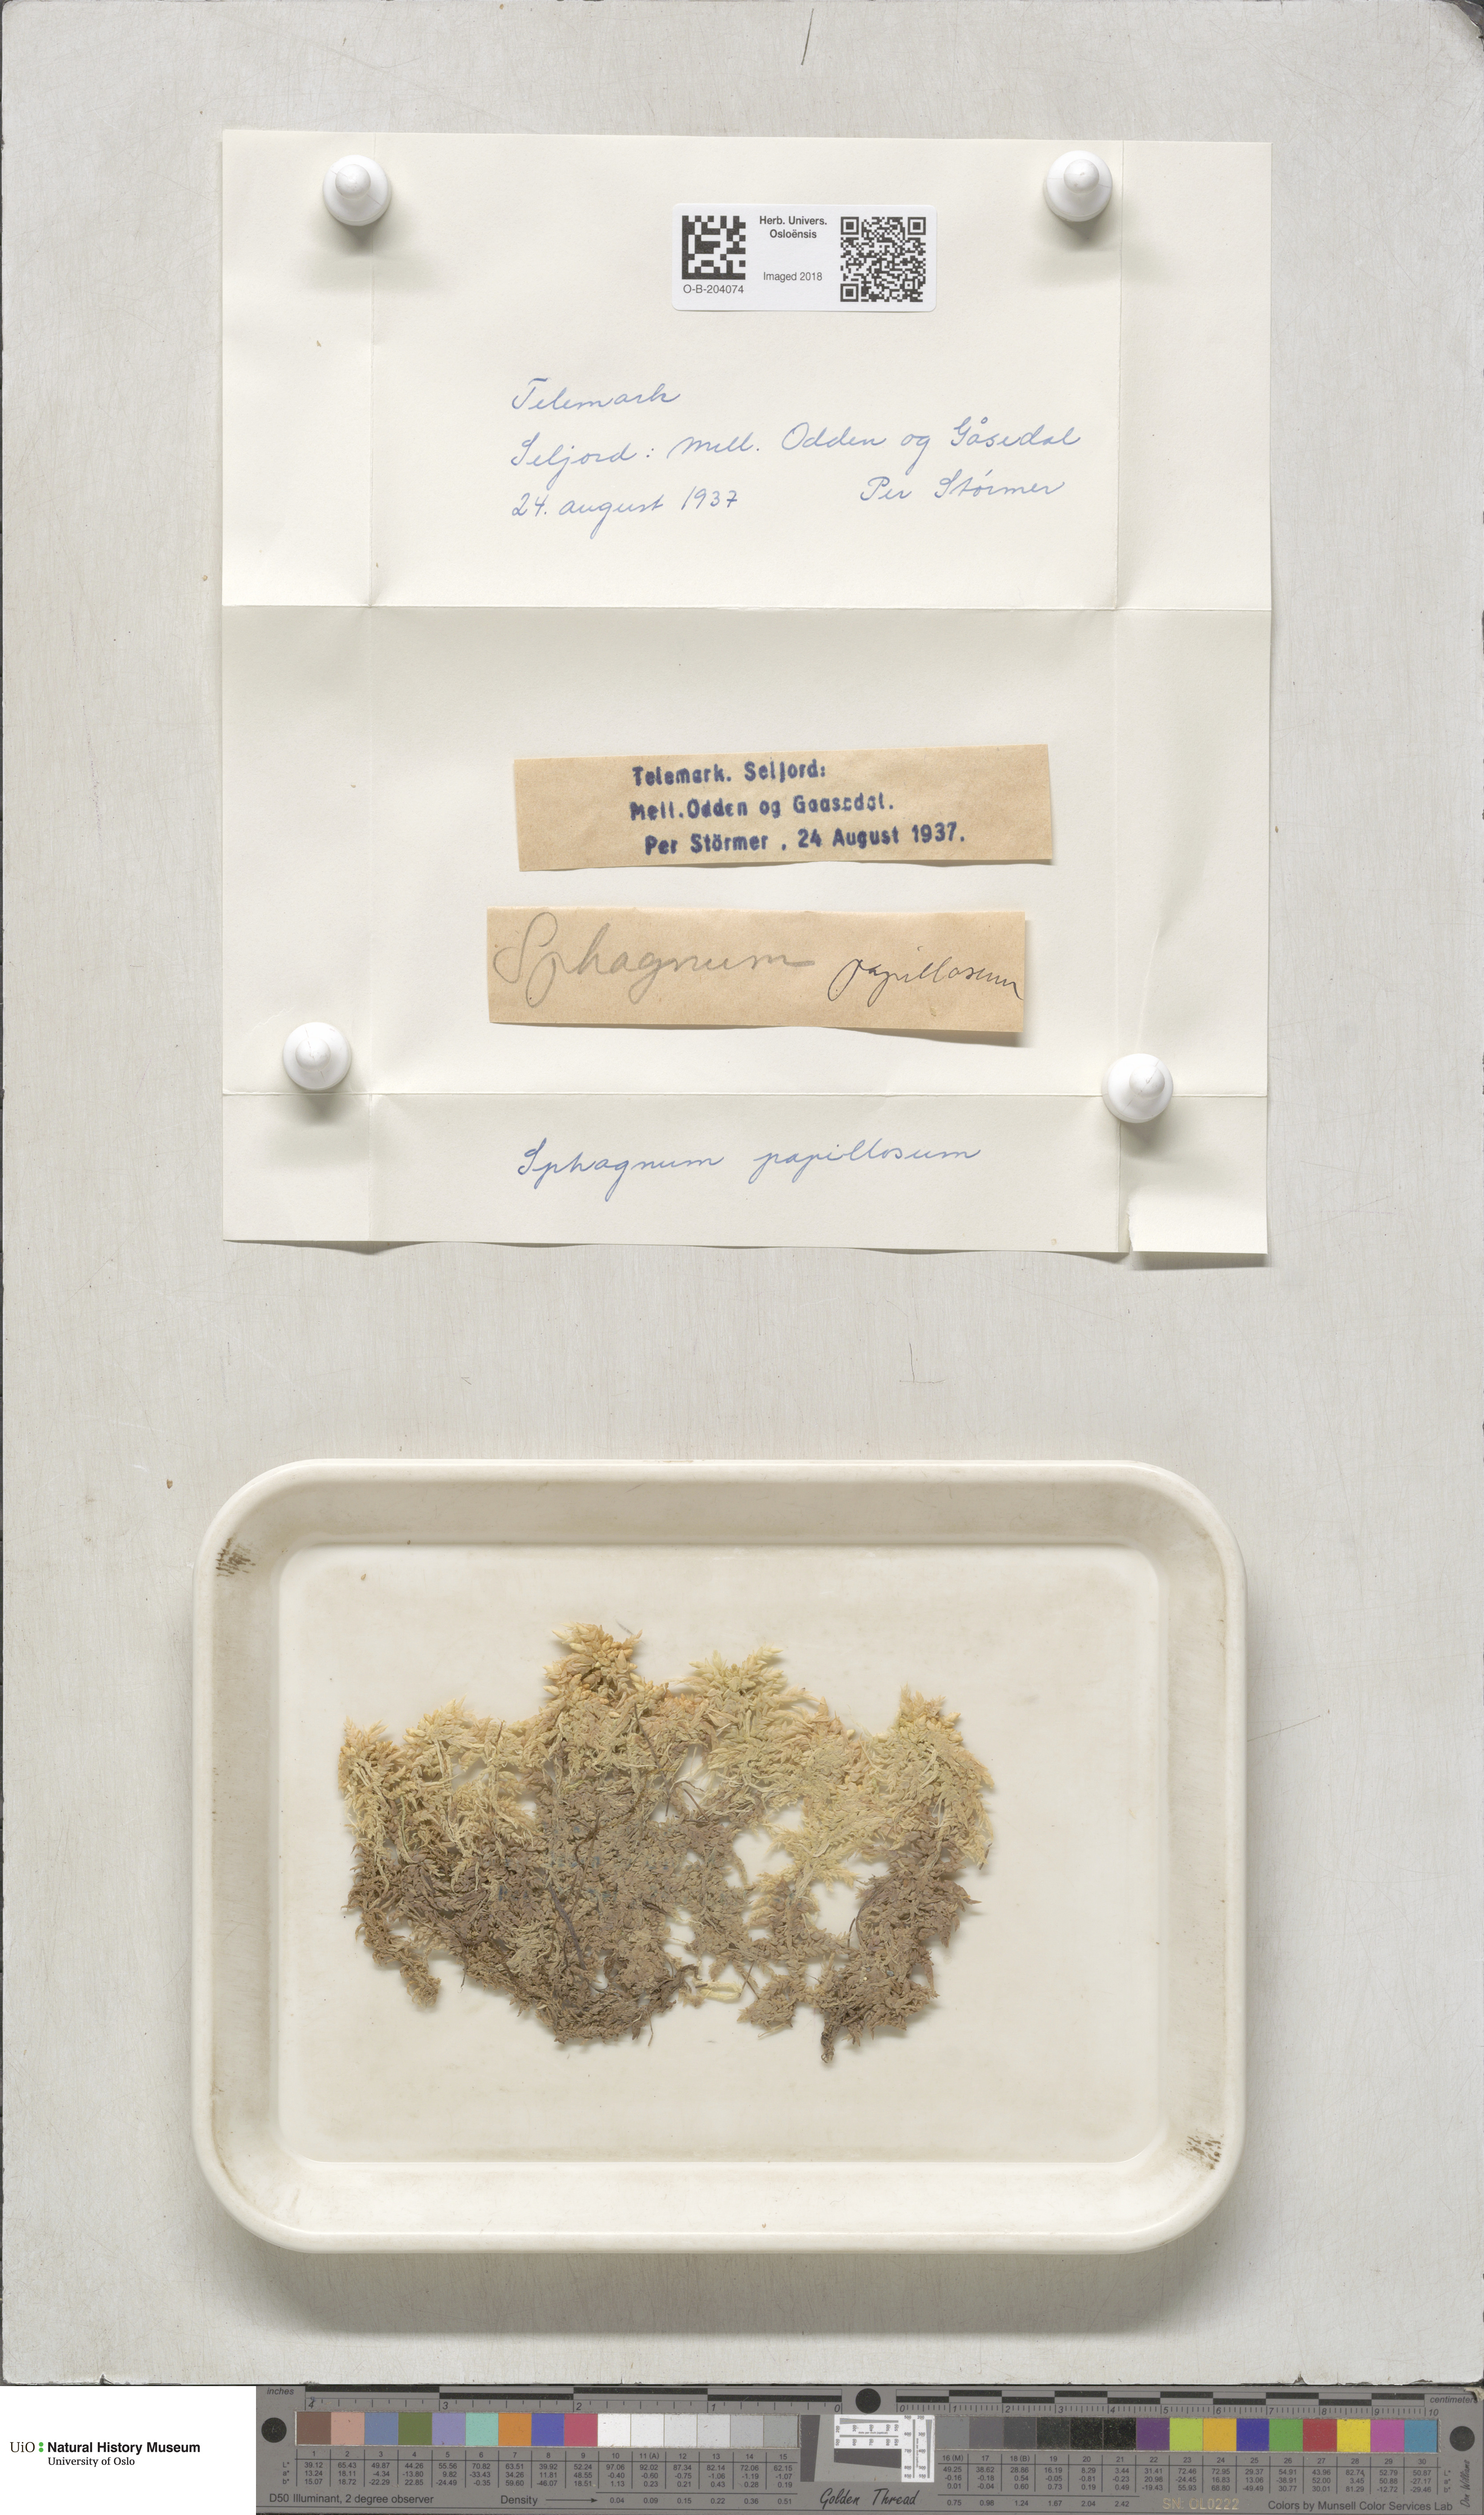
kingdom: Plantae
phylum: Bryophyta
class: Sphagnopsida
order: Sphagnales
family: Sphagnaceae
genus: Sphagnum
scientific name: Sphagnum papillosum
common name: Papillose peat moss
